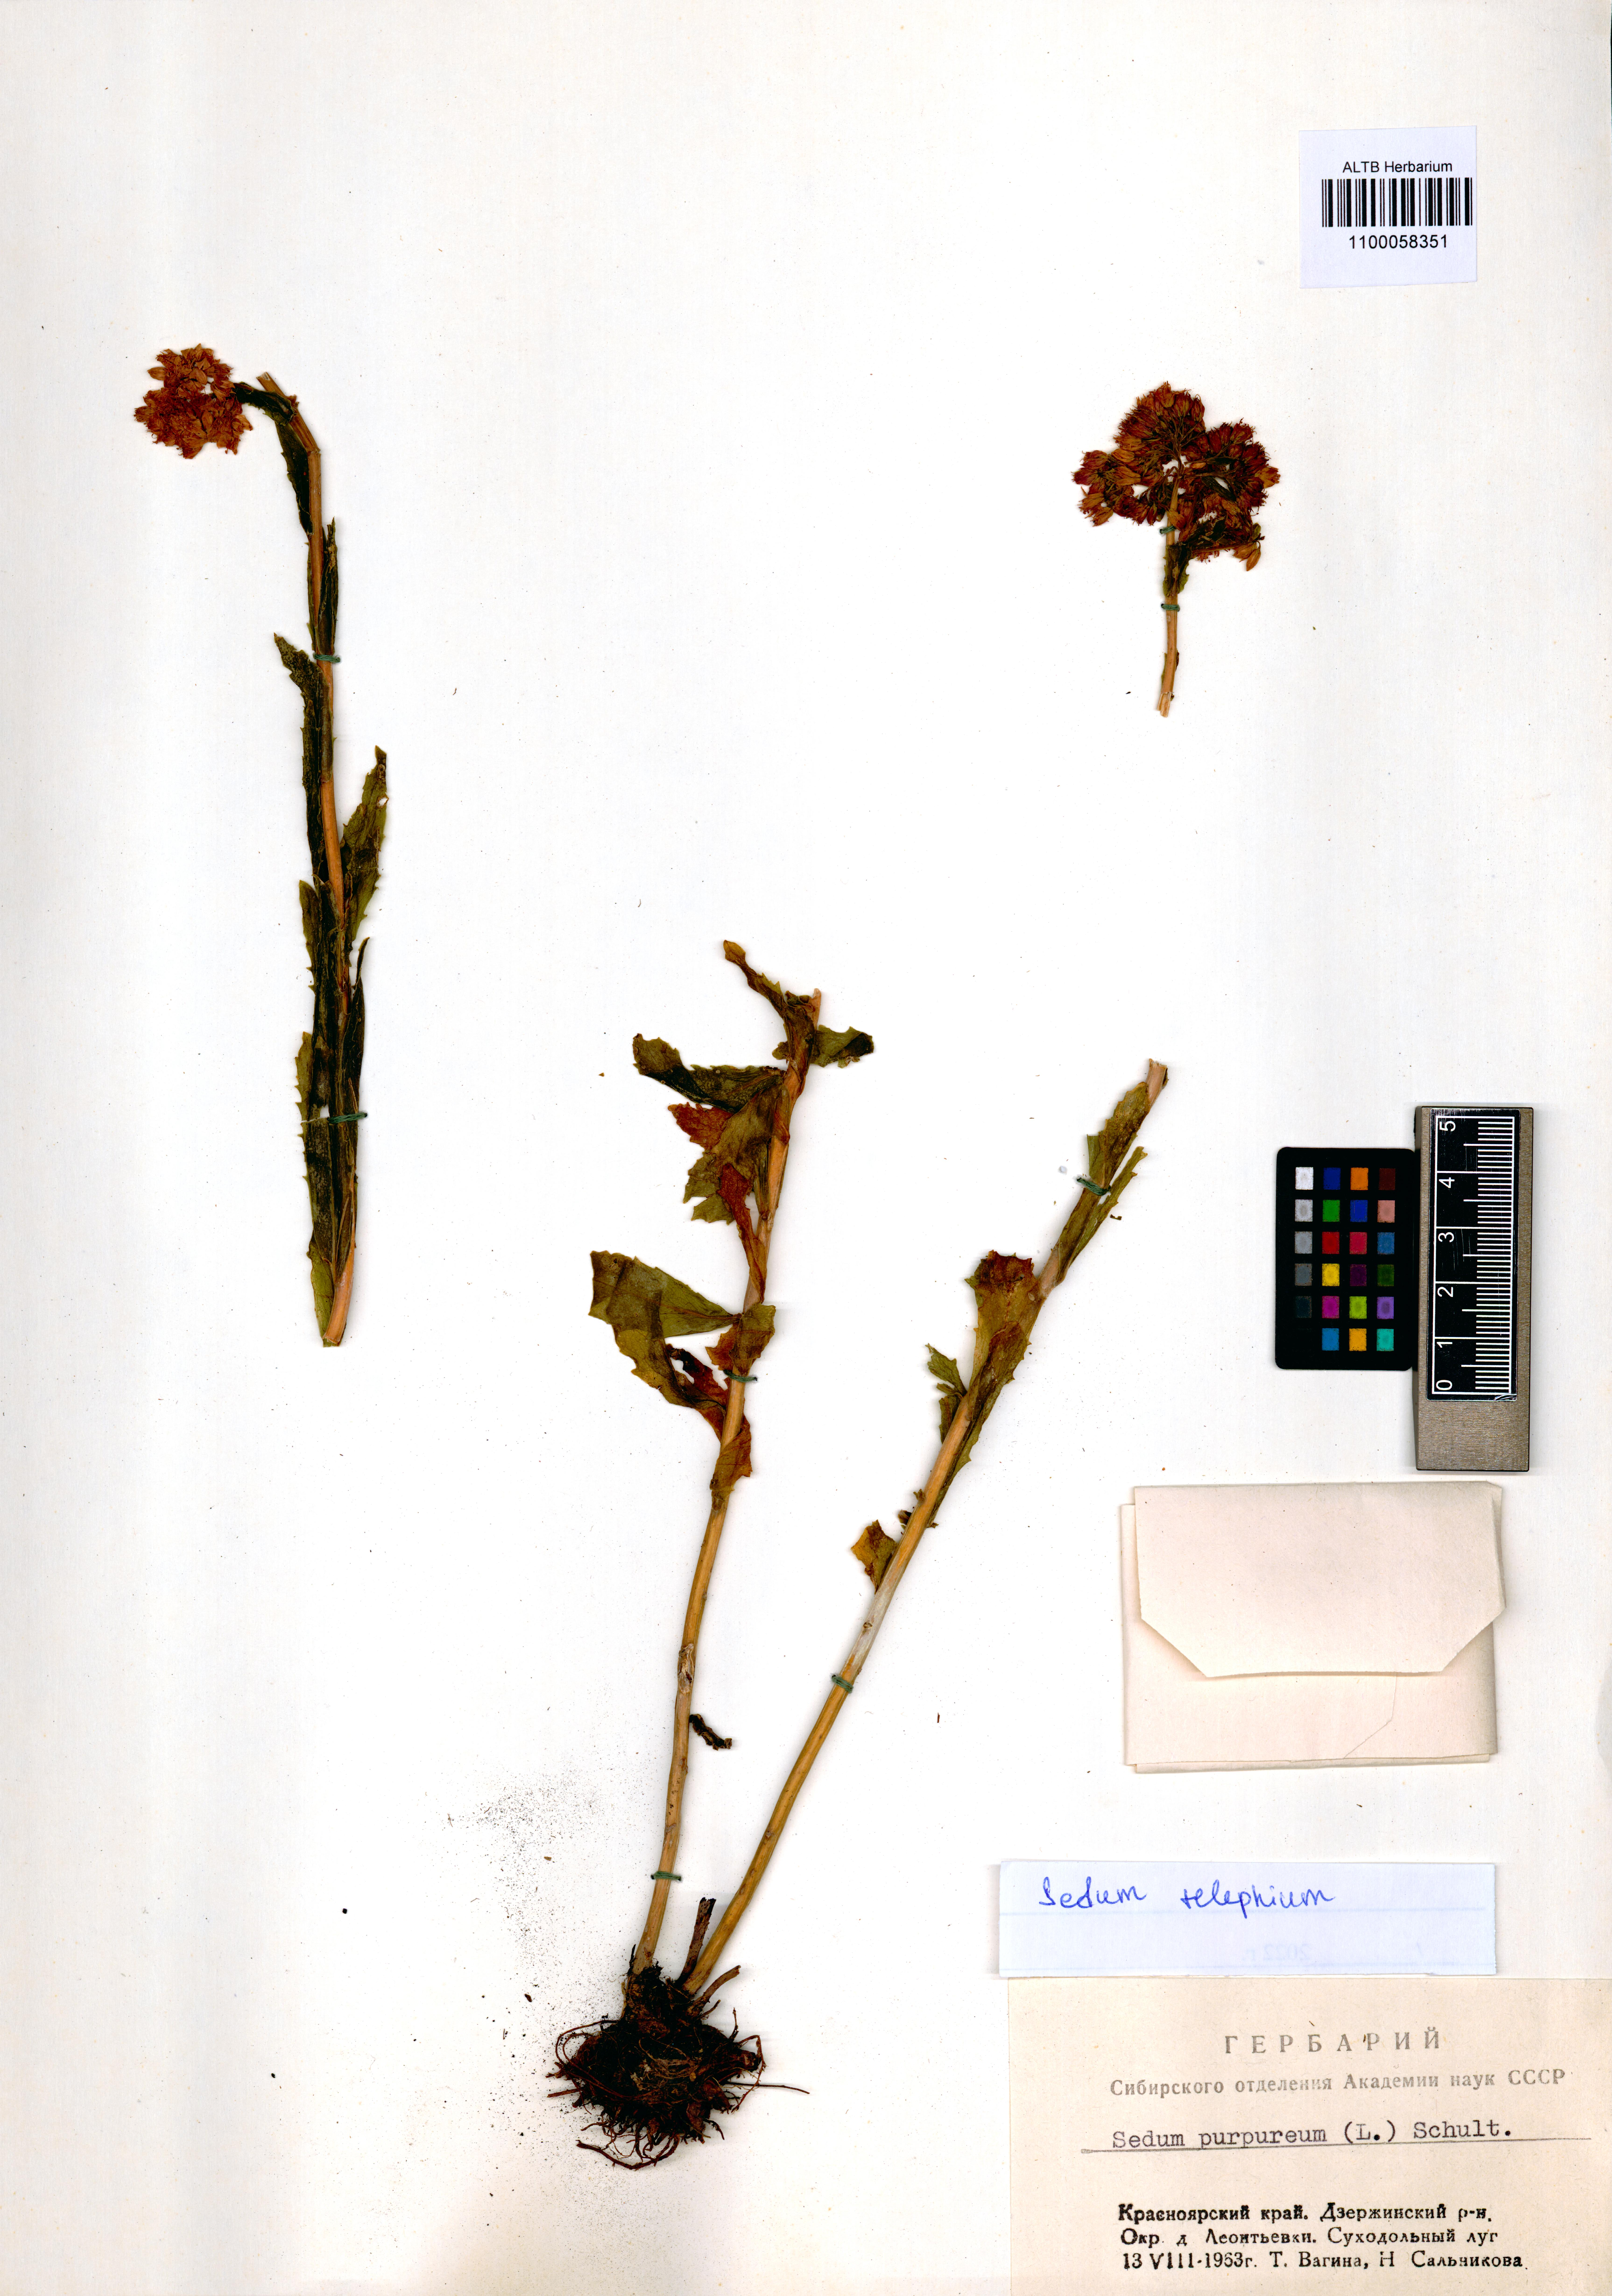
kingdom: Plantae
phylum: Tracheophyta
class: Magnoliopsida
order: Saxifragales
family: Crassulaceae
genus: Hylotelephium
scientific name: Hylotelephium telephium
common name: Live-forever
